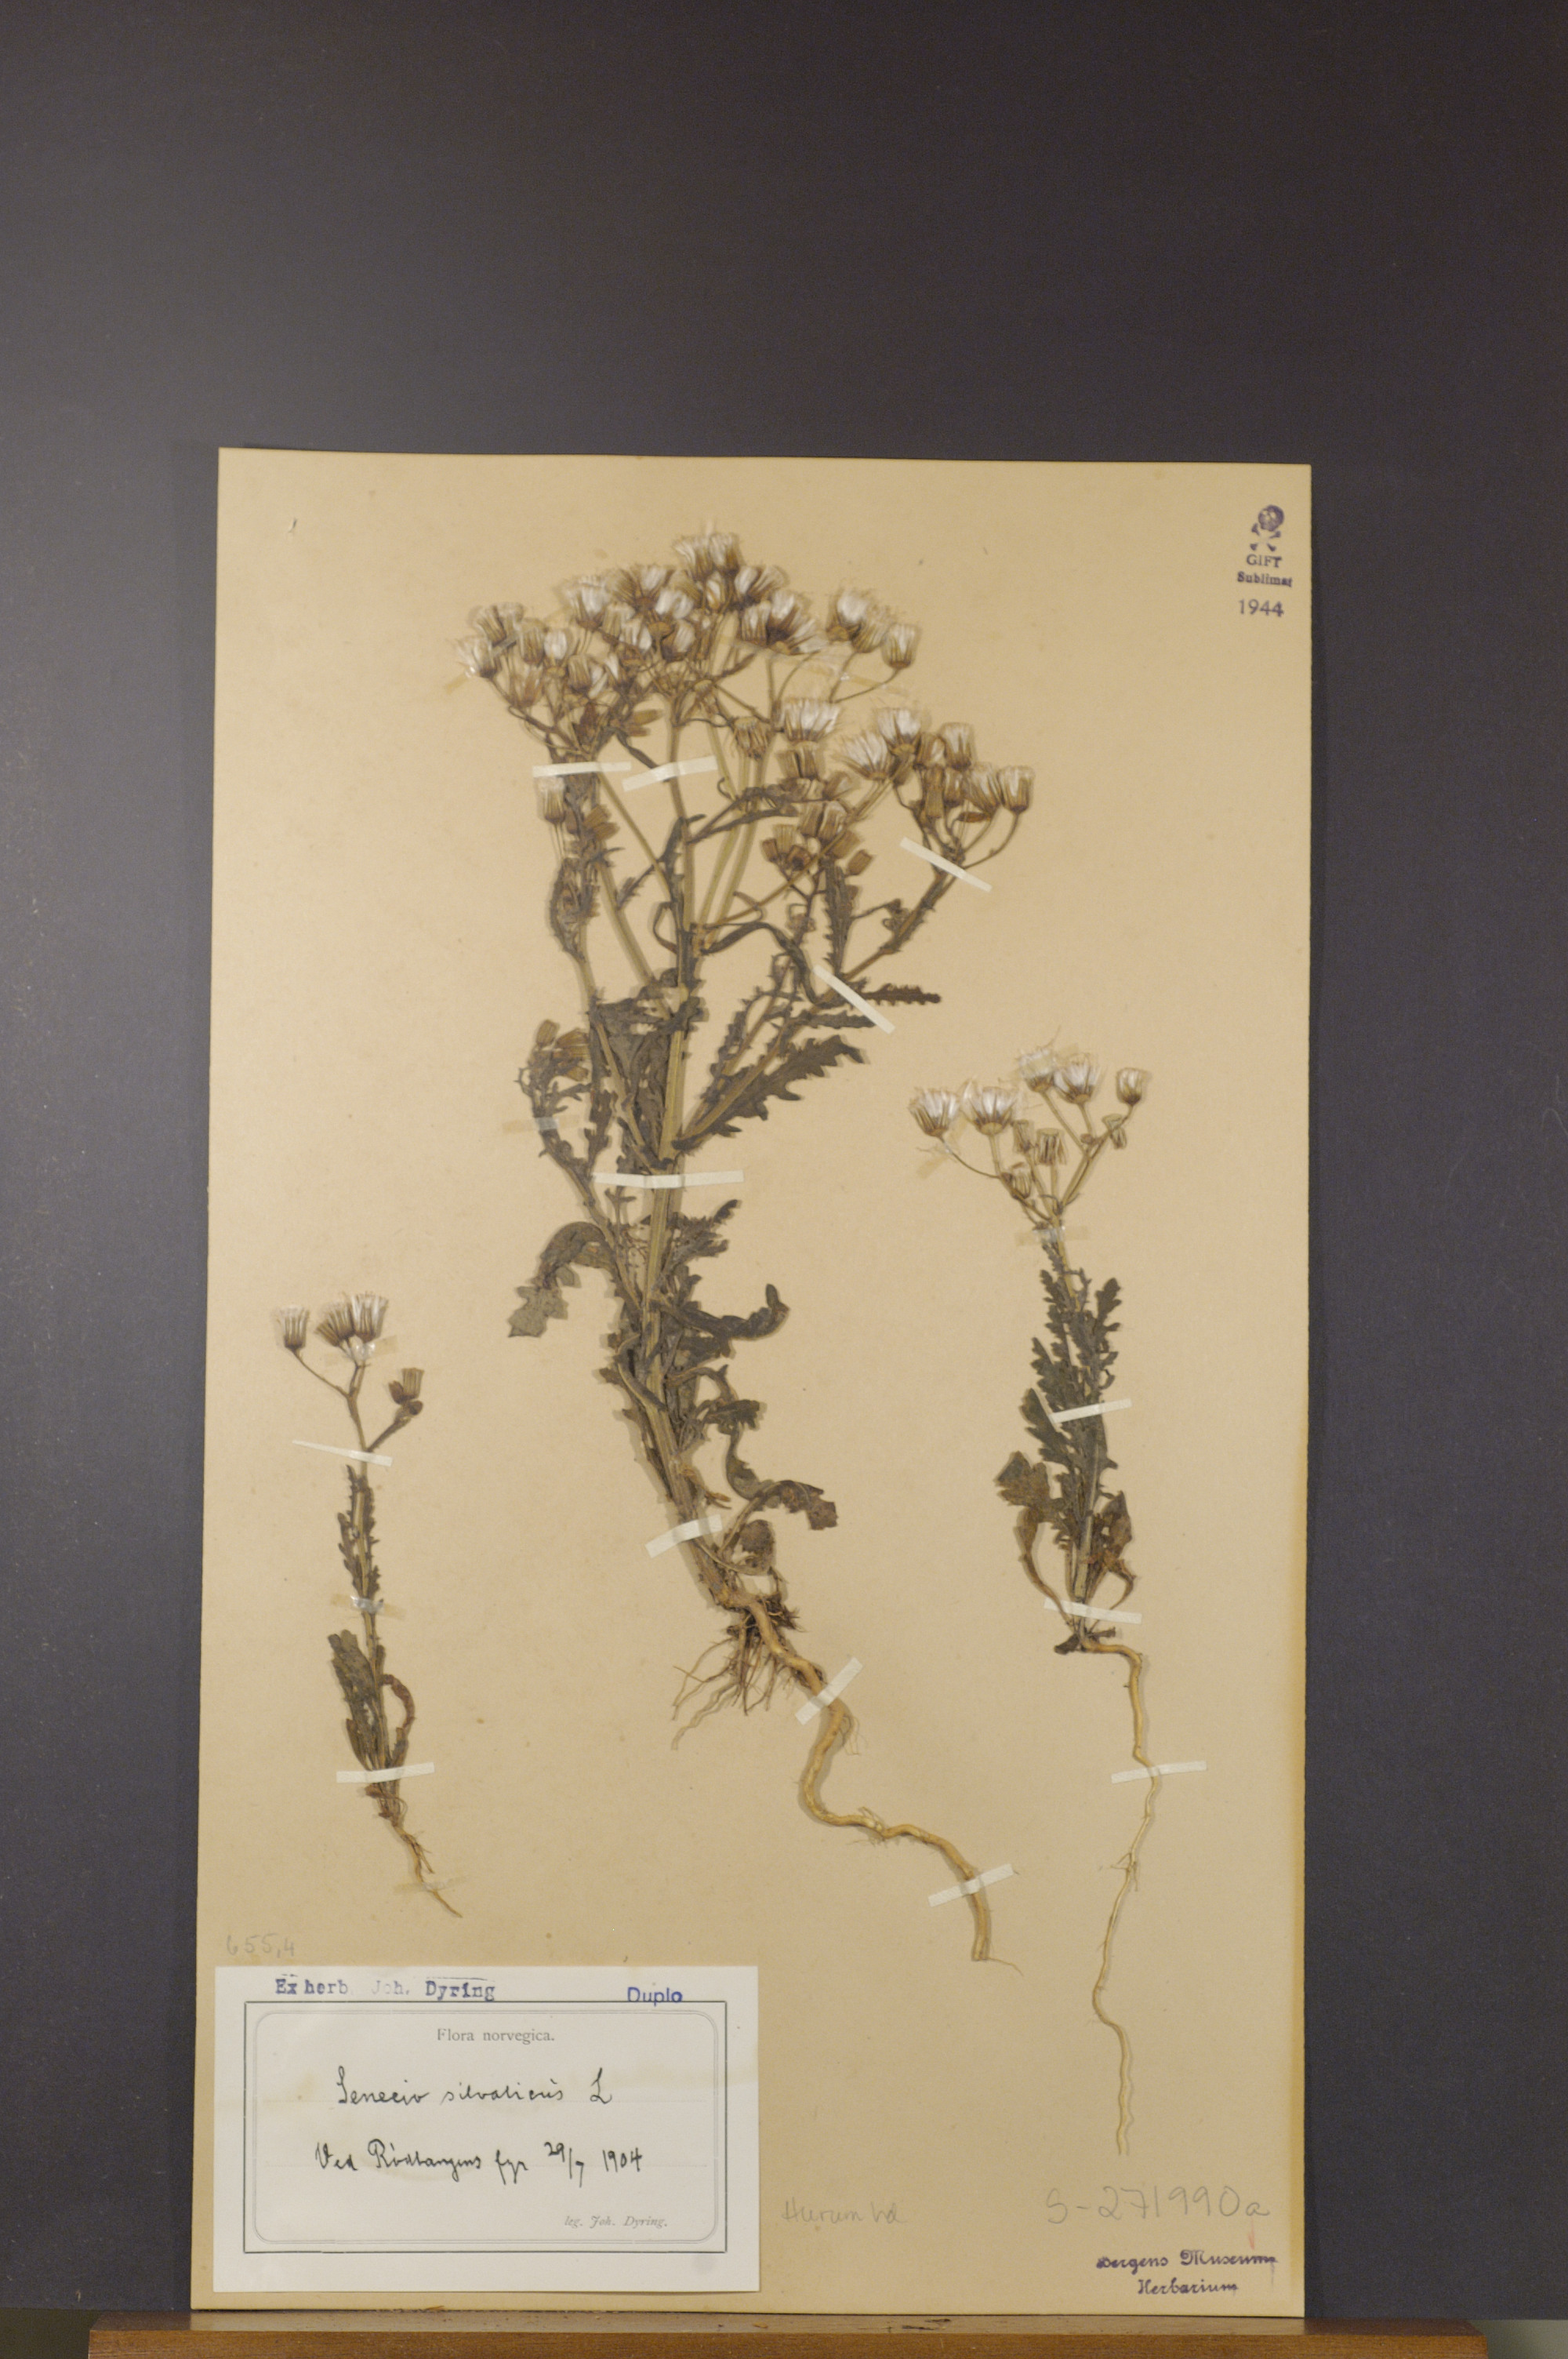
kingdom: Plantae
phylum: Tracheophyta
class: Magnoliopsida
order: Asterales
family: Asteraceae
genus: Senecio
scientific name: Senecio sylvaticus
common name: Woodland ragwort
